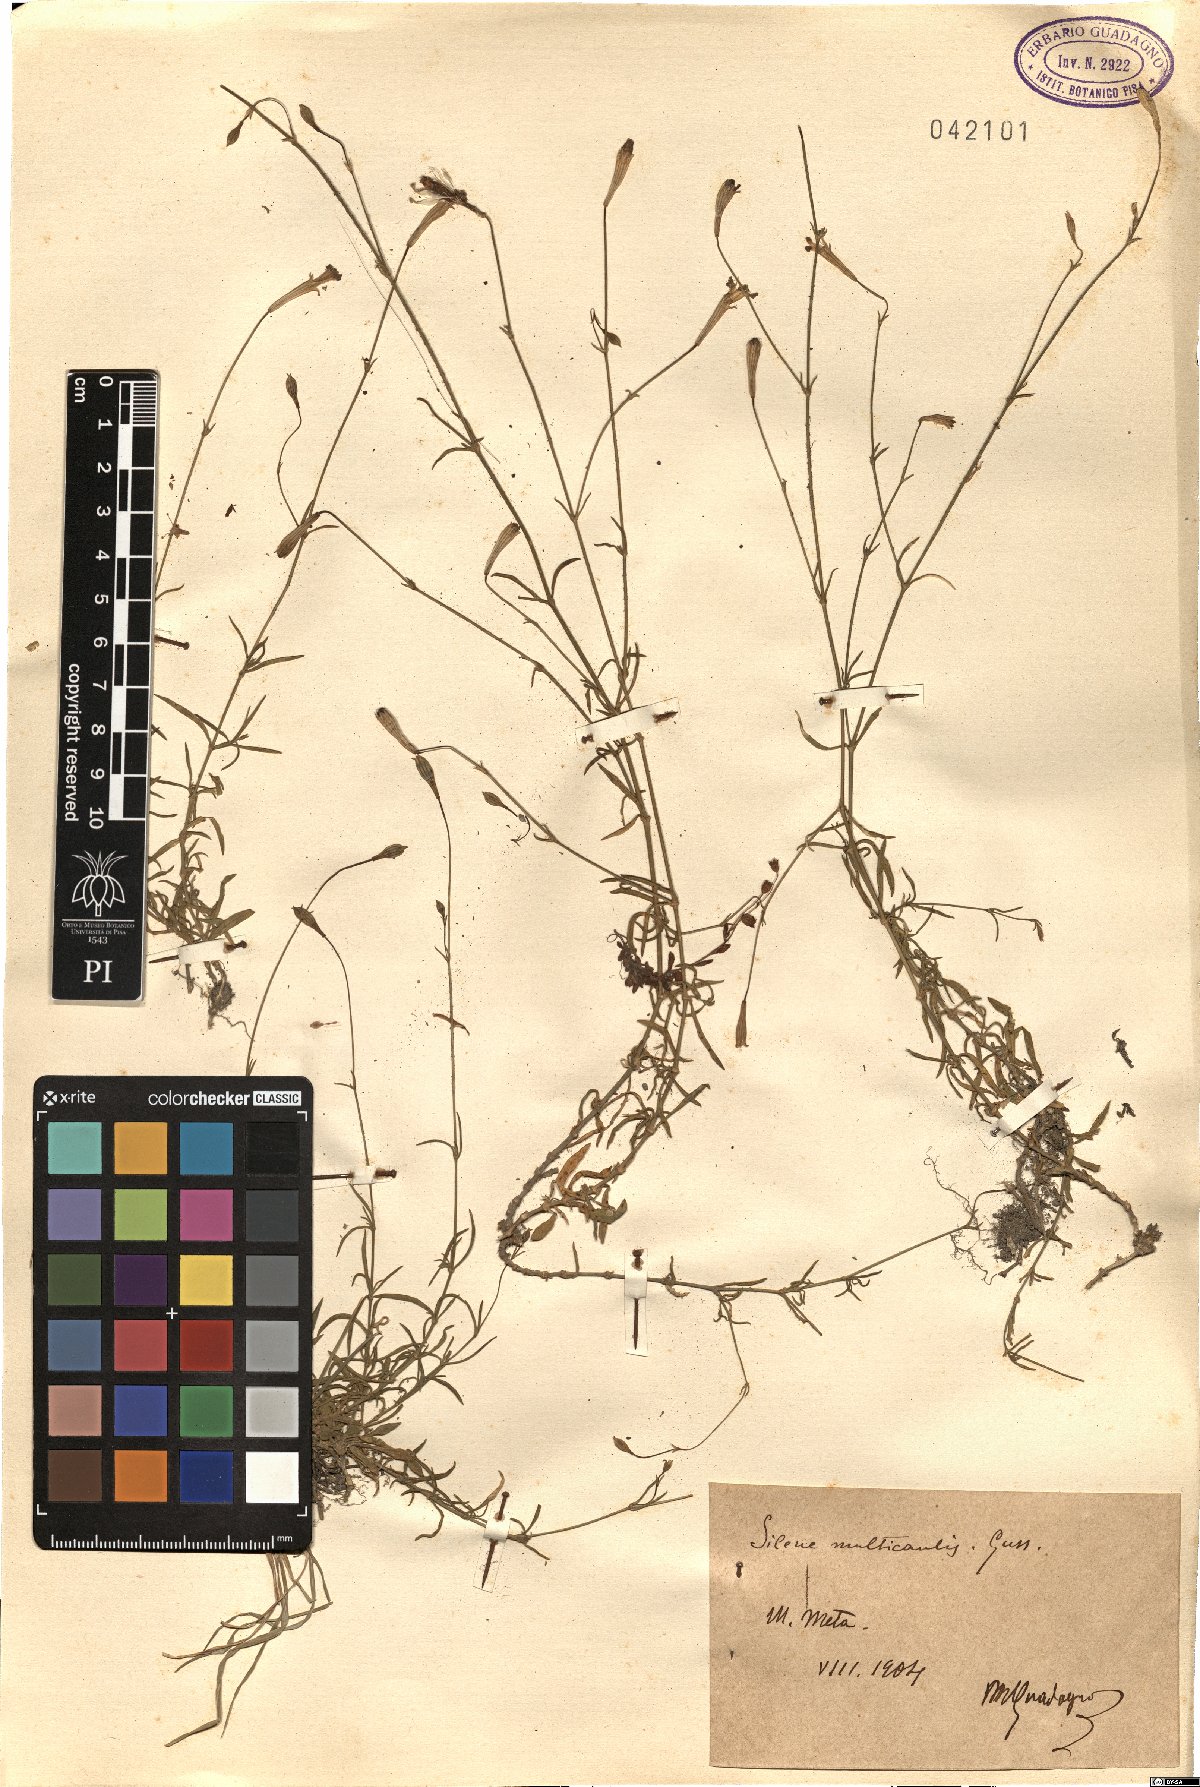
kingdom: Plantae
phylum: Tracheophyta
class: Magnoliopsida
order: Caryophyllales
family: Caryophyllaceae
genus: Silene
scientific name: Silene multicaulis
